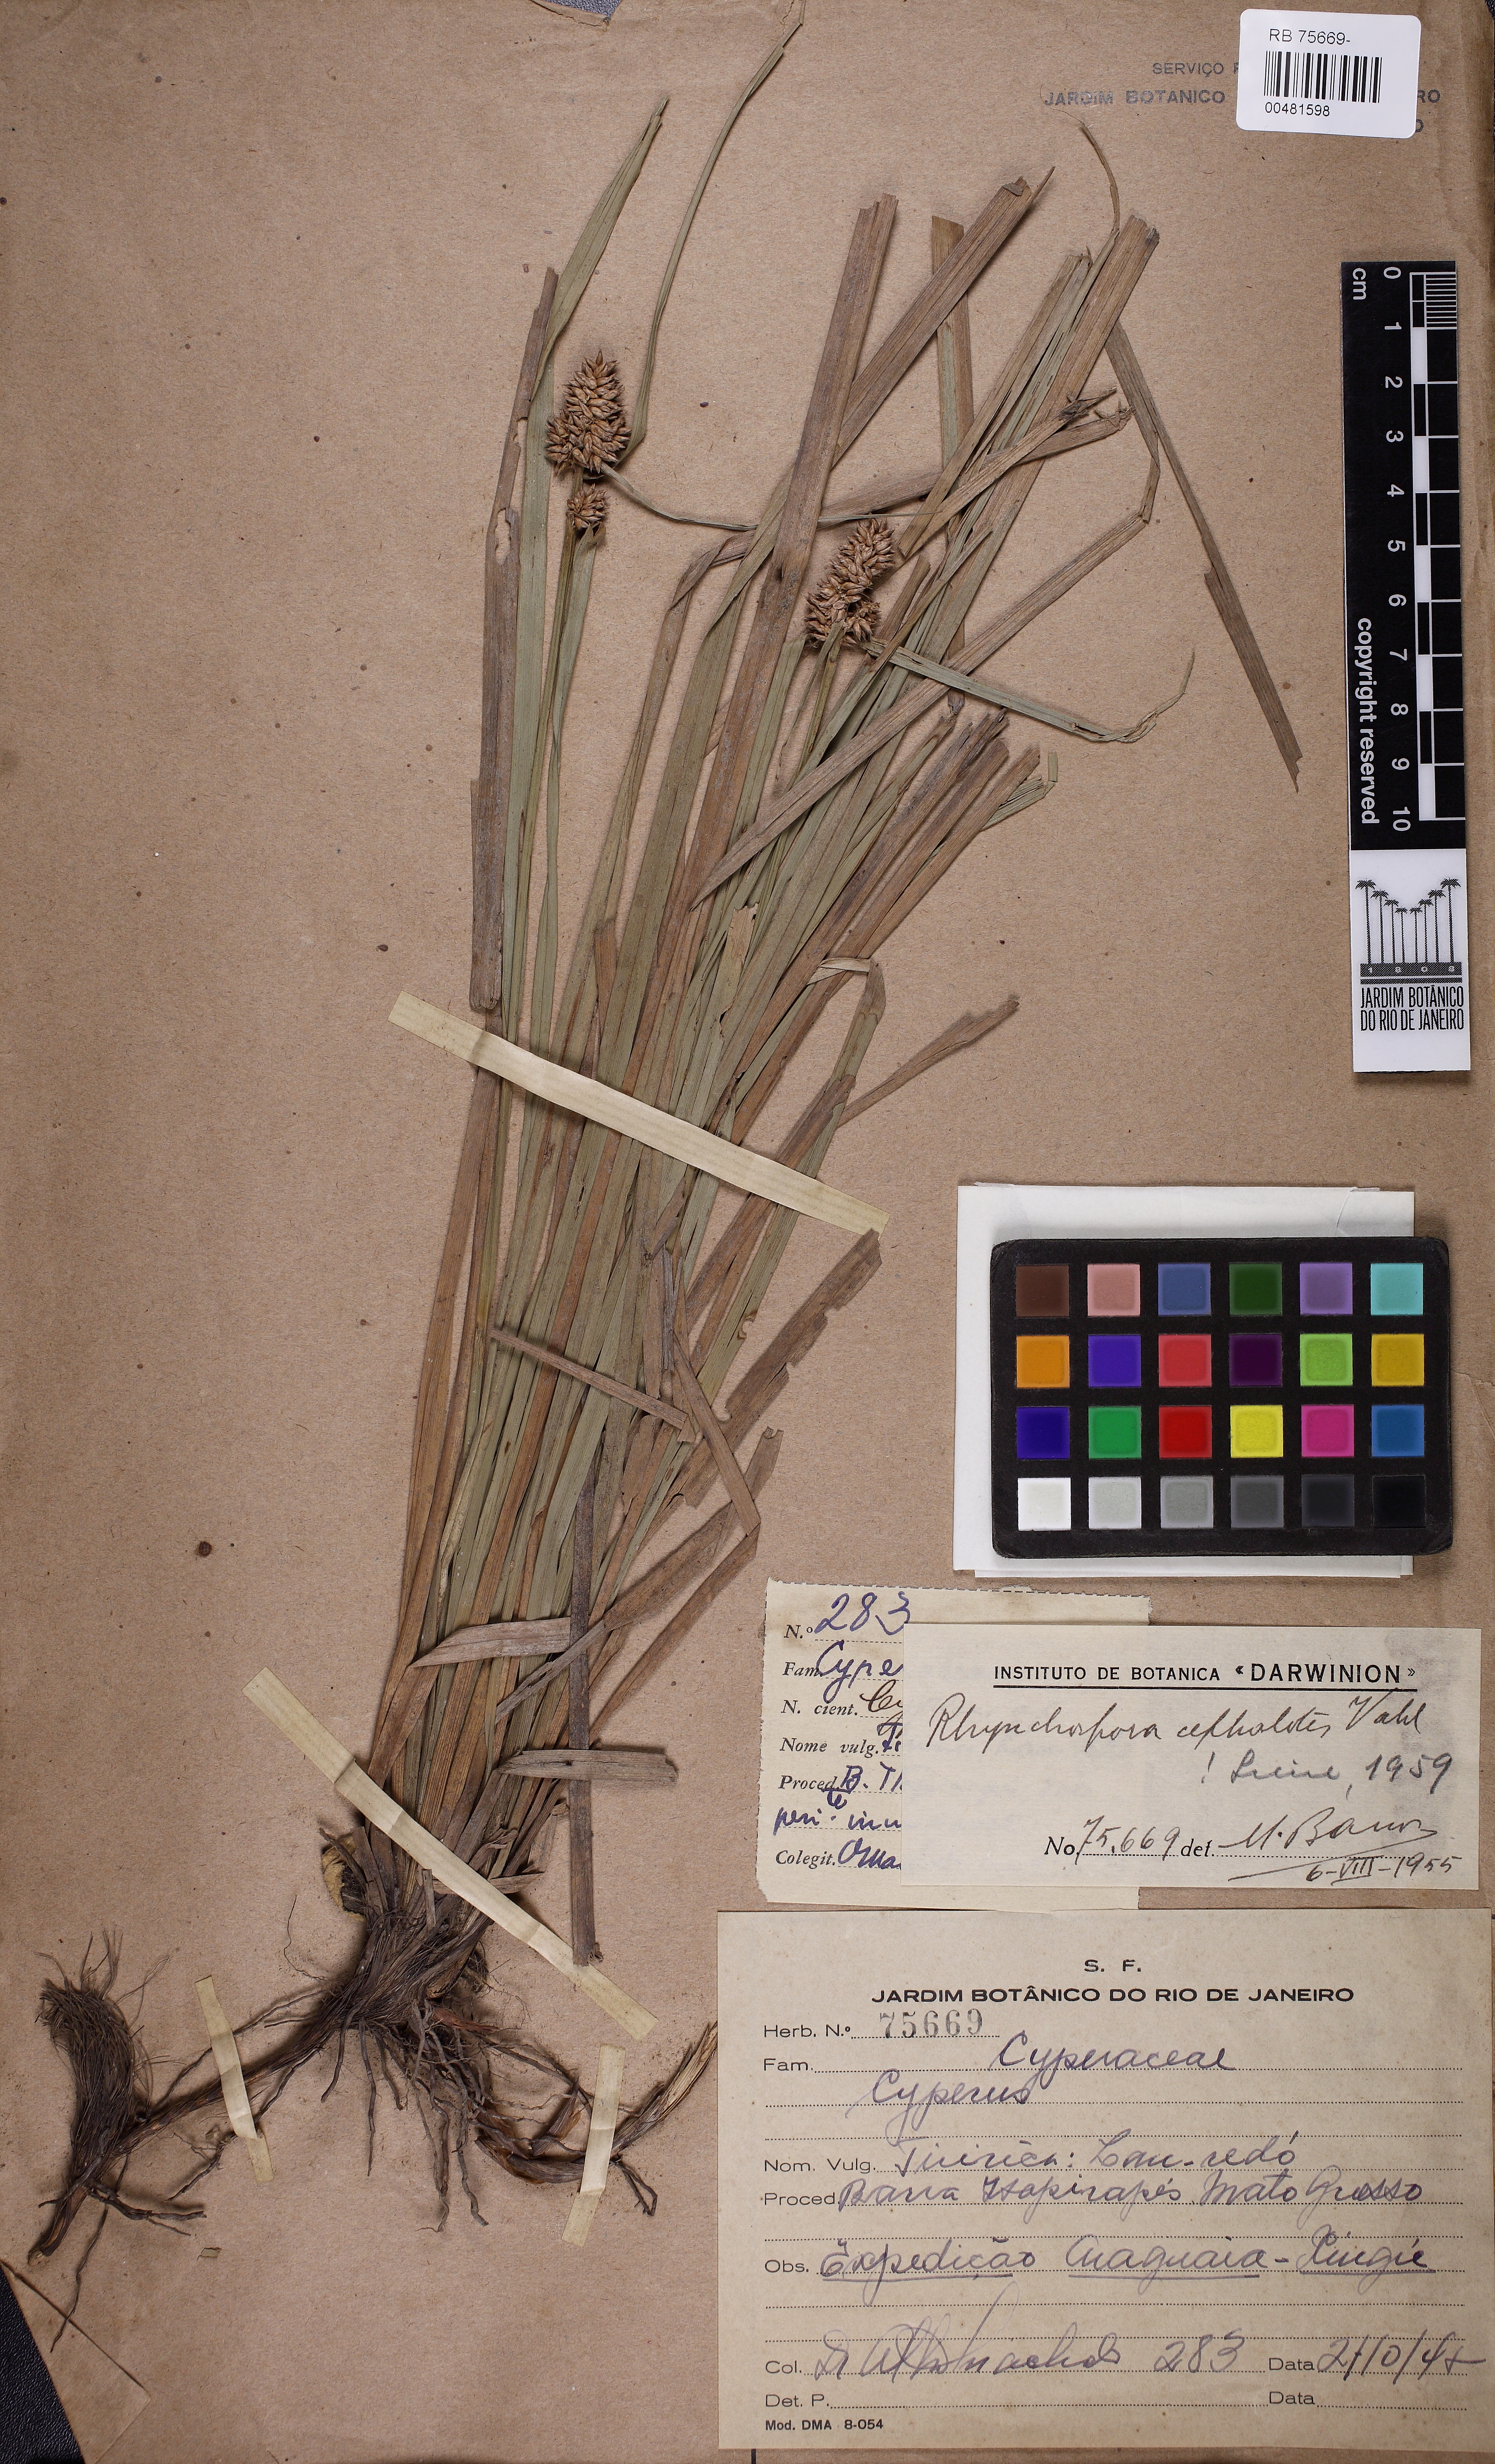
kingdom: Plantae
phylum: Tracheophyta
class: Liliopsida
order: Poales
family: Cyperaceae
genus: Rhynchospora
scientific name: Rhynchospora cephalotes
